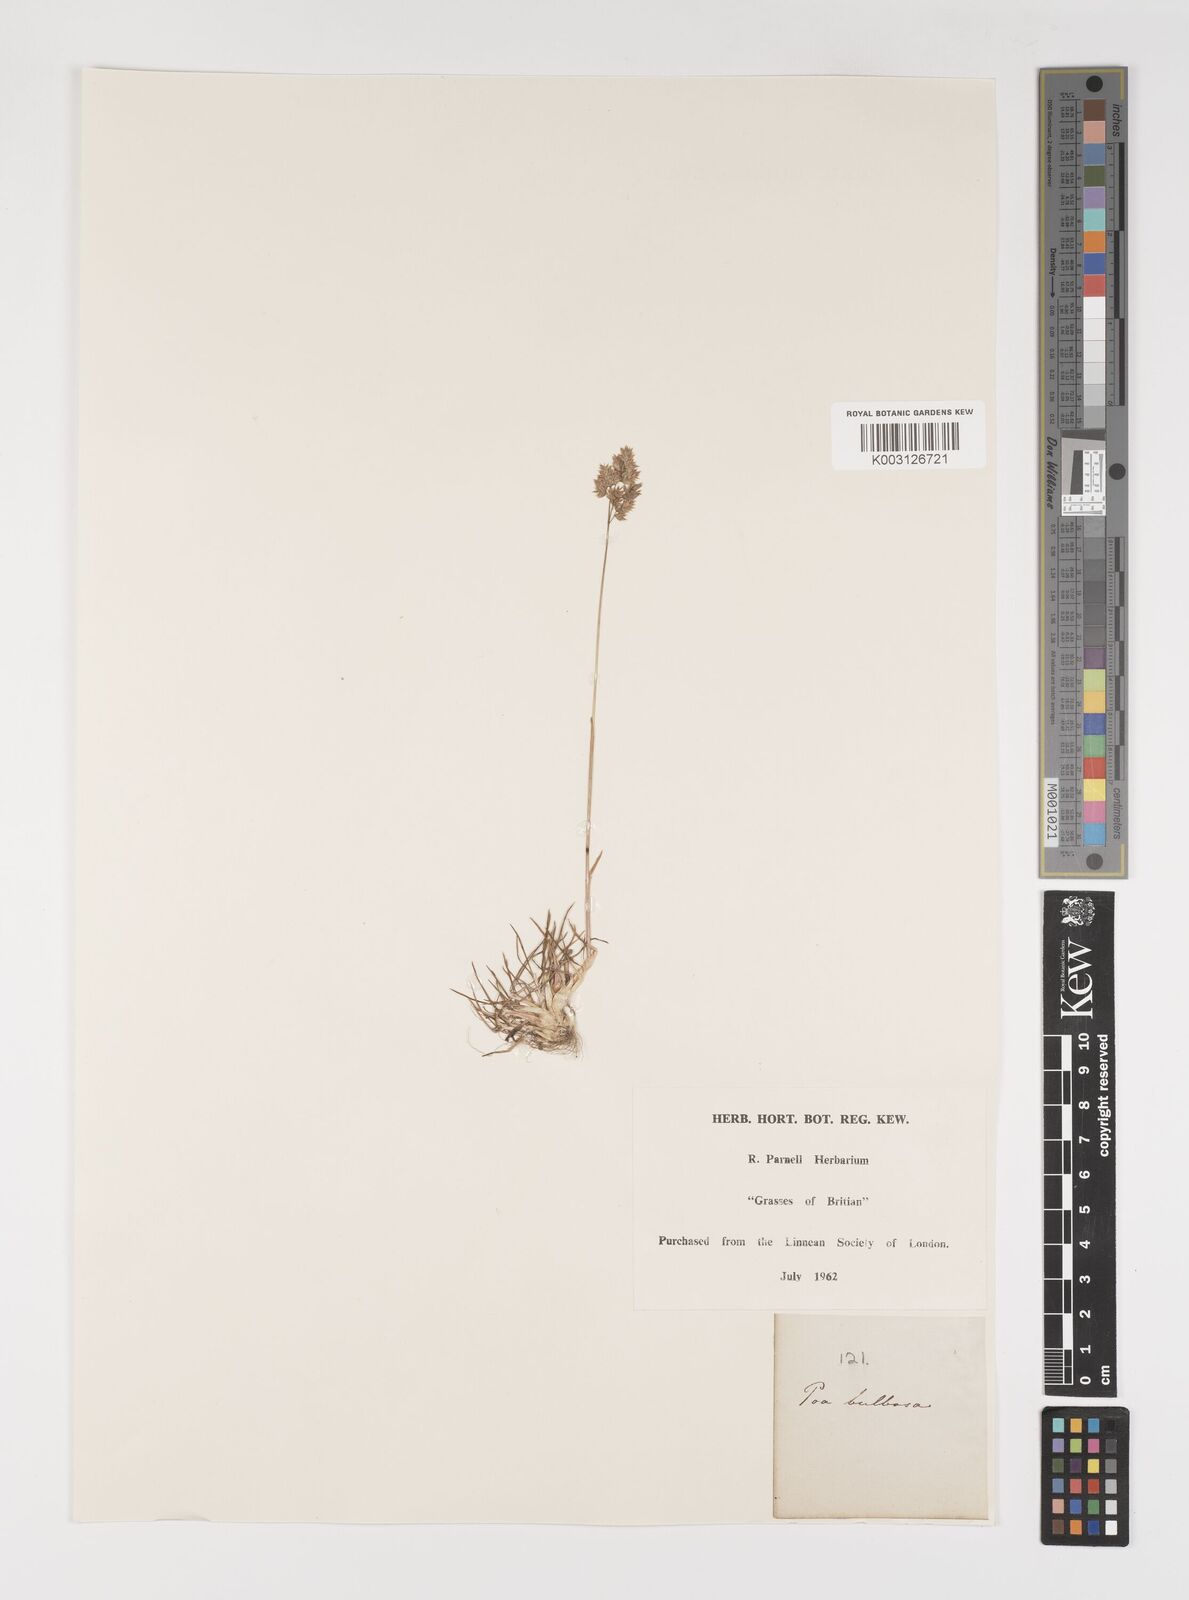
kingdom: Plantae
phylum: Tracheophyta
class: Liliopsida
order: Poales
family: Poaceae
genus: Poa
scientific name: Poa bulbosa
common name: Bulbous bluegrass
